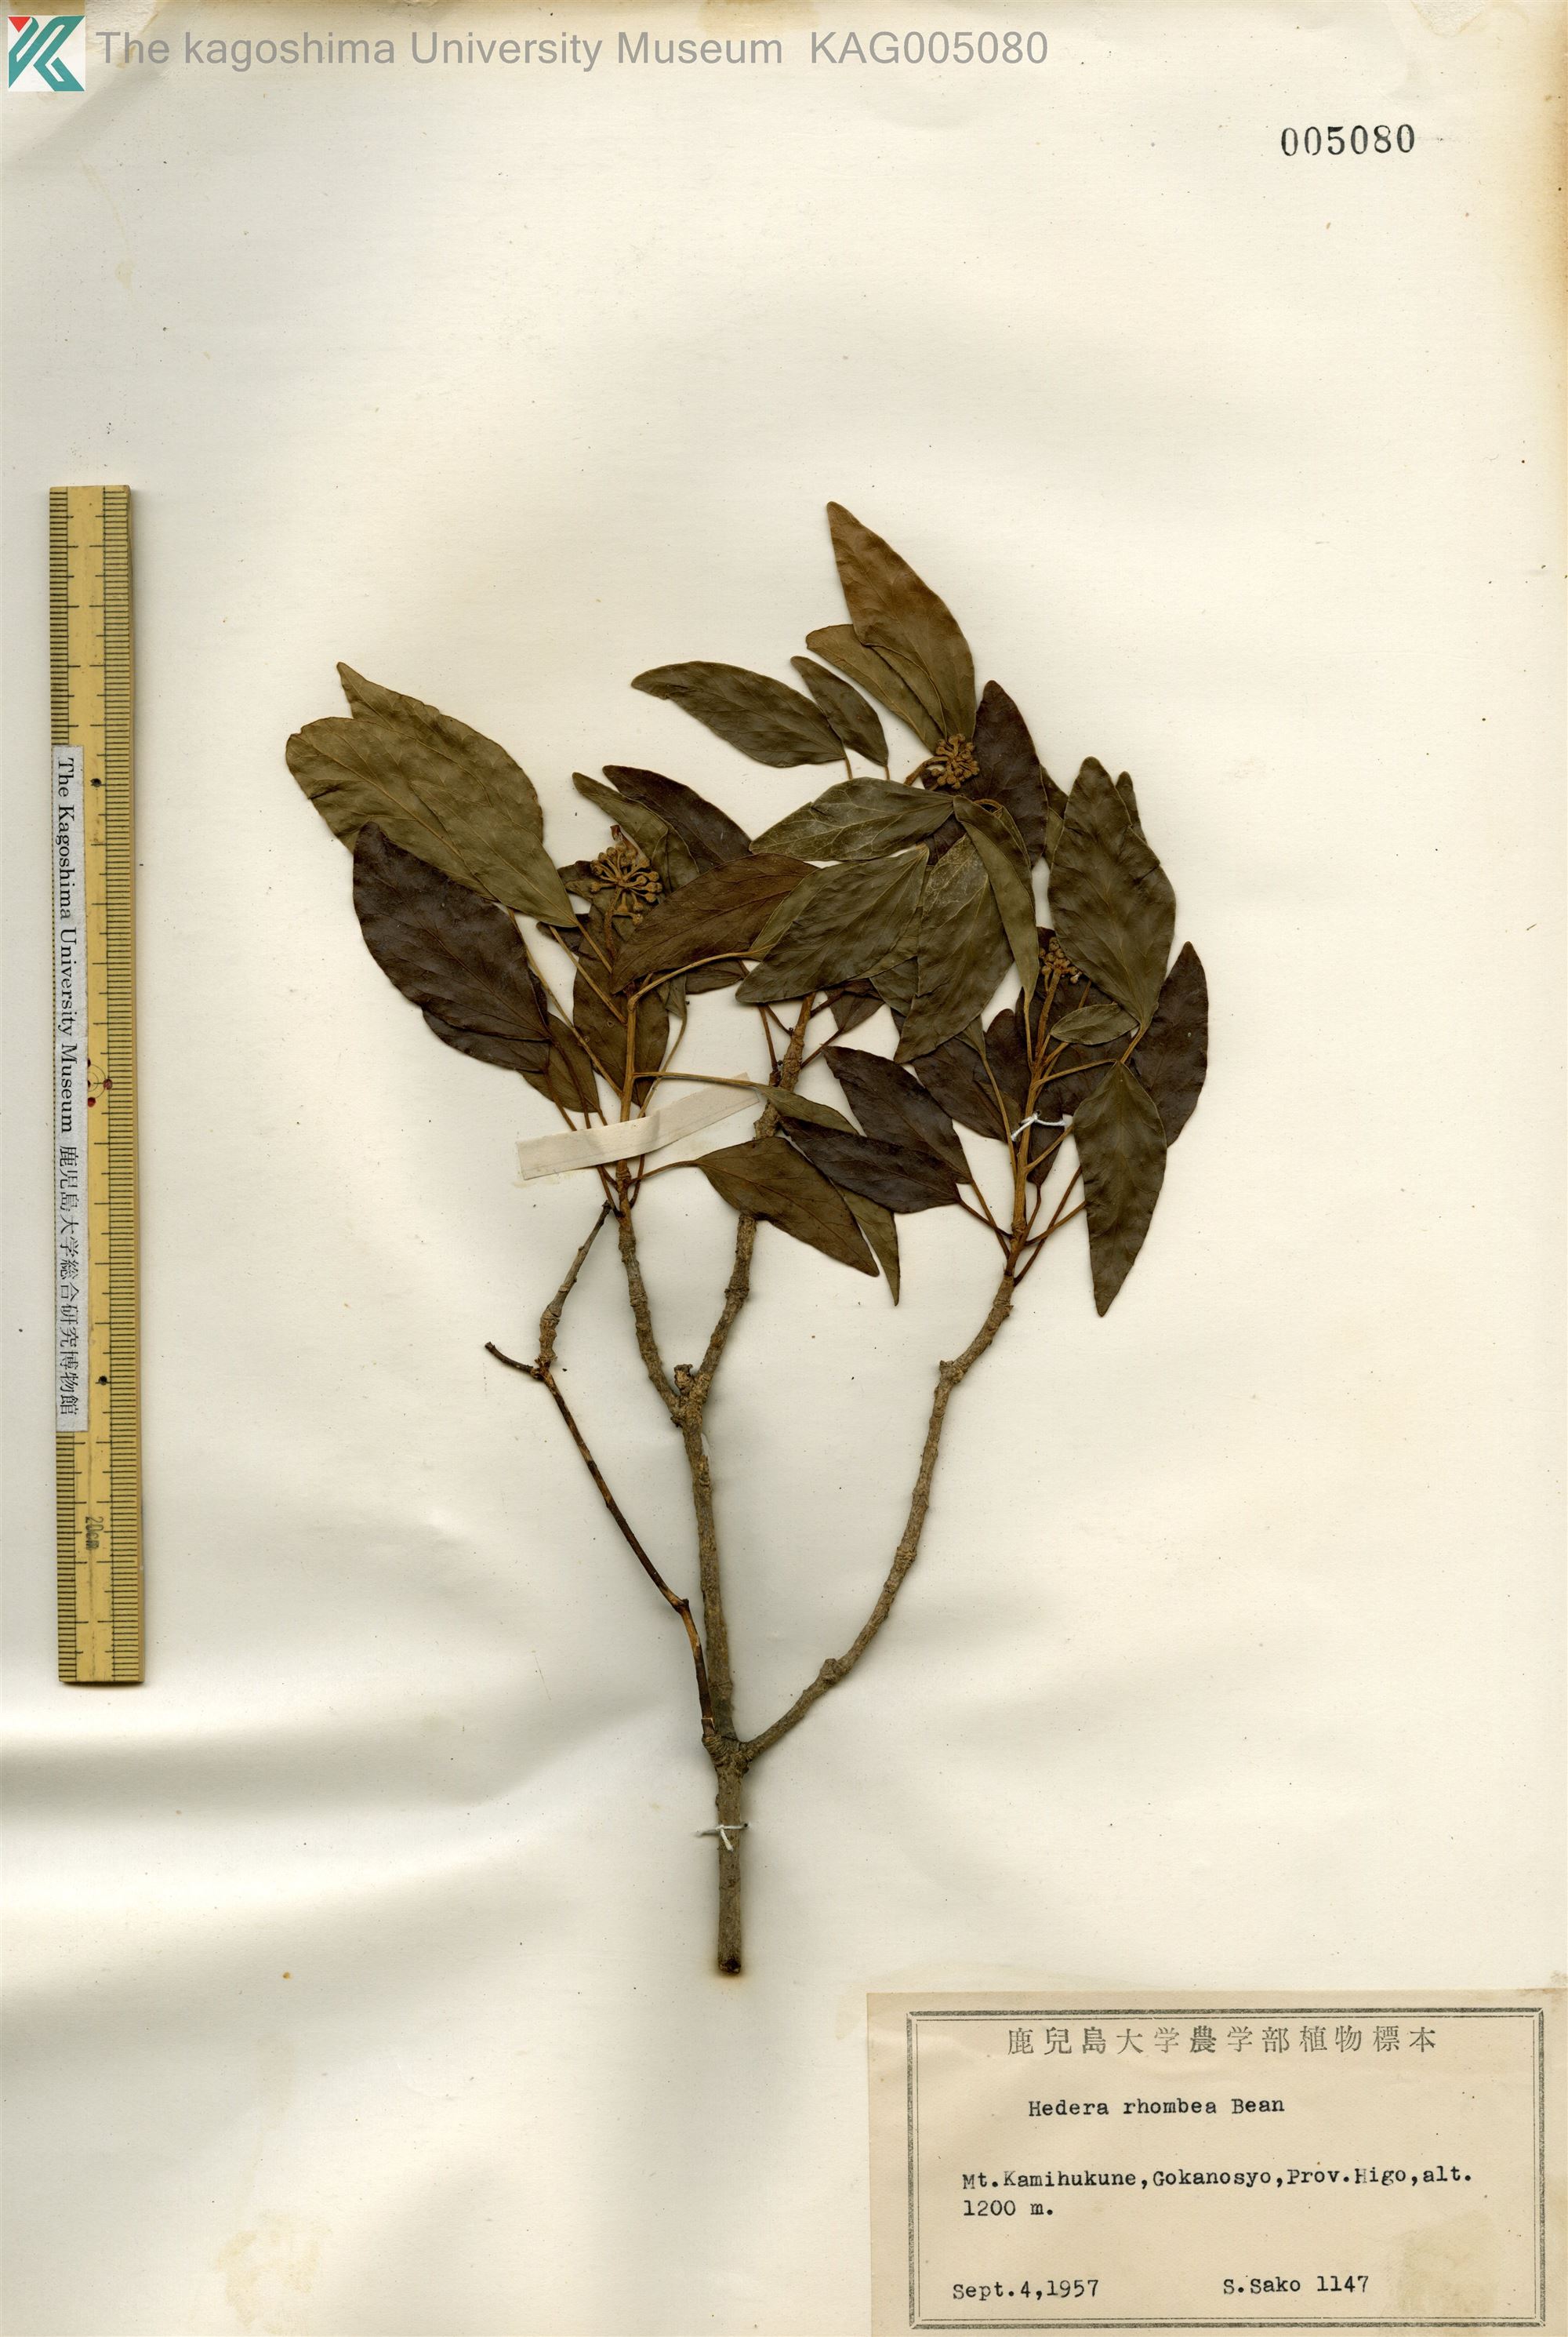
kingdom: Plantae
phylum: Tracheophyta
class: Magnoliopsida
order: Apiales
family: Araliaceae
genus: Hedera
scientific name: Hedera rhombea
